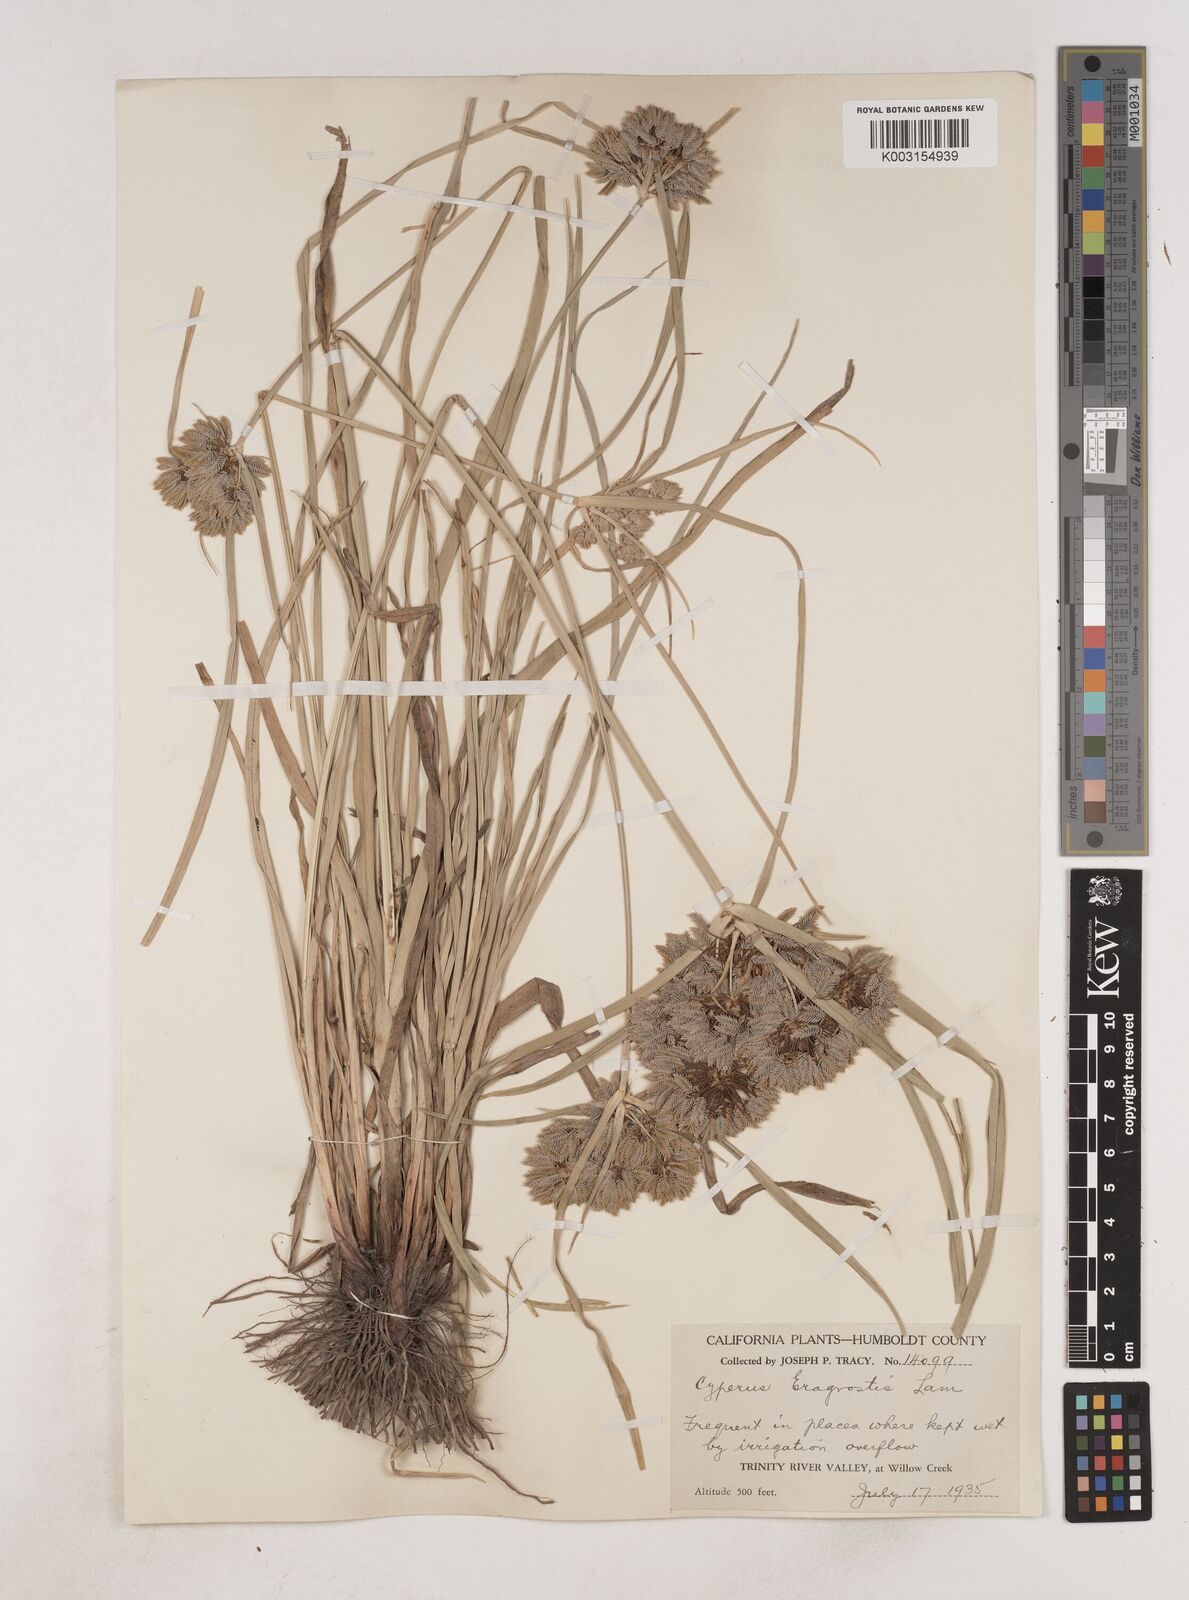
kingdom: Plantae
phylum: Tracheophyta
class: Liliopsida
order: Poales
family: Cyperaceae
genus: Cyperus
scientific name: Cyperus eragrostis
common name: Tall flatsedge
